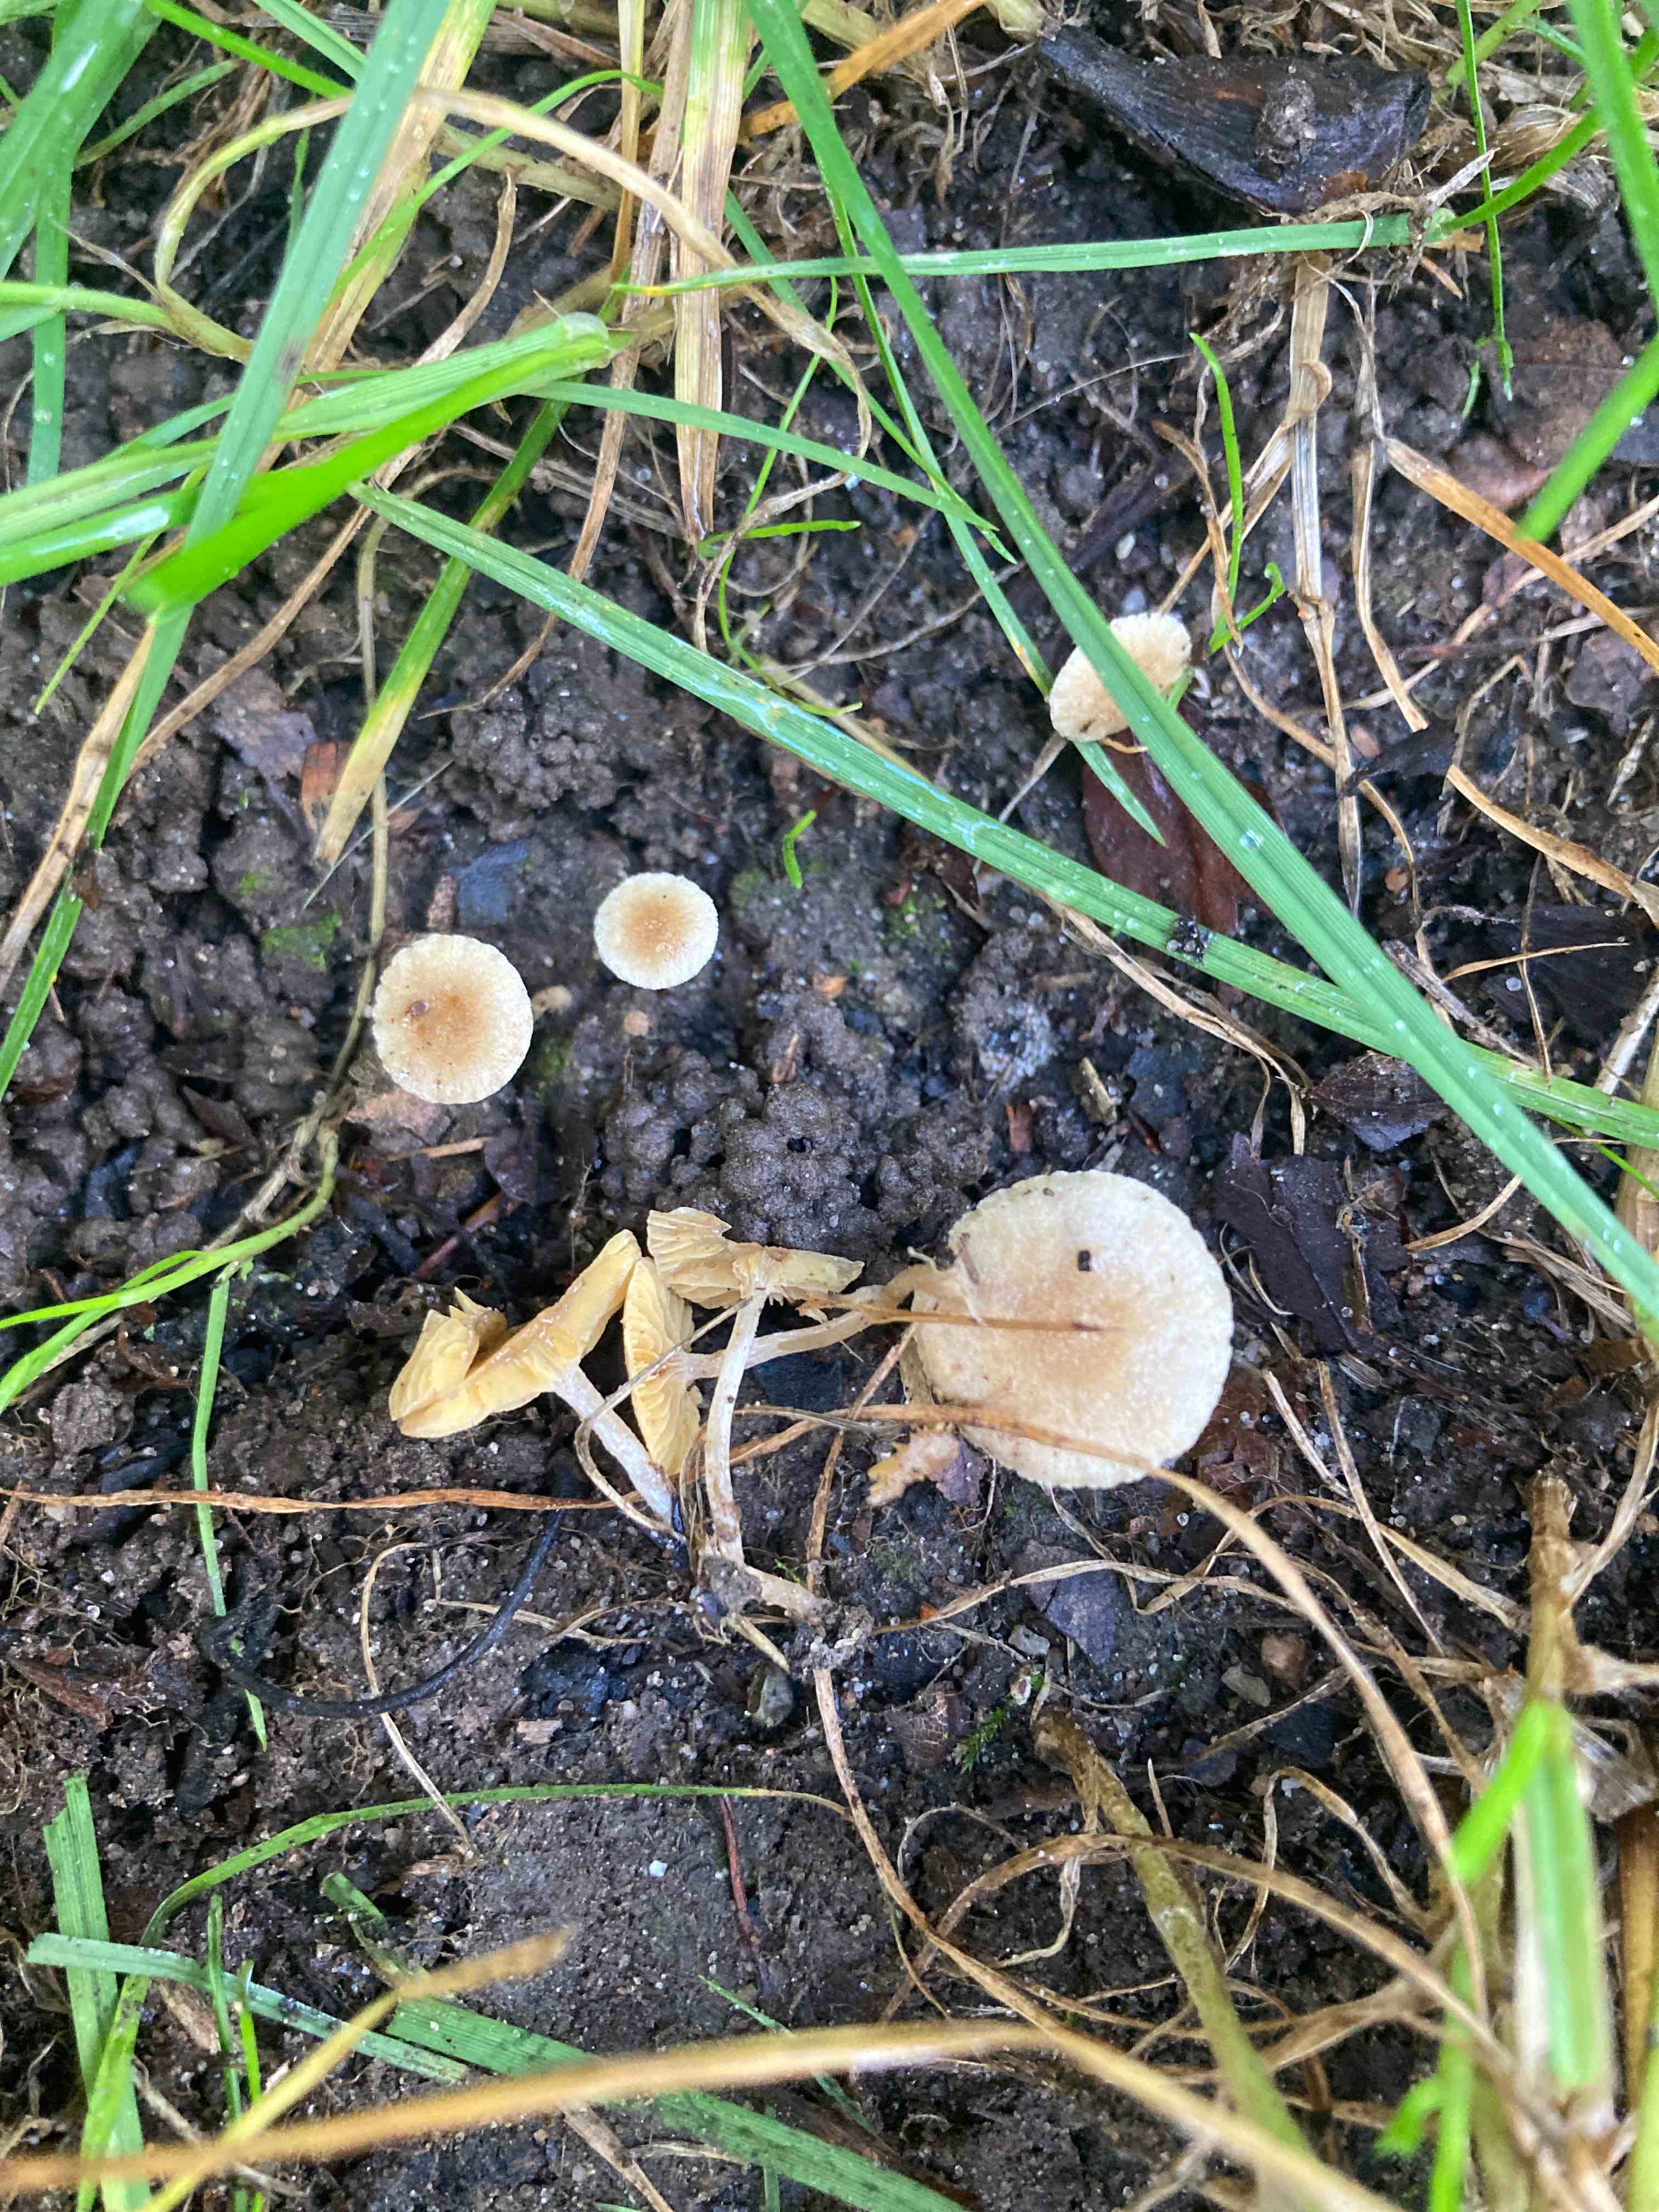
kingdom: Fungi
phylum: Basidiomycota
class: Agaricomycetes
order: Agaricales
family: Tubariaceae
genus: Tubaria
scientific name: Tubaria dispersa
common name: tjørne-fnughat
